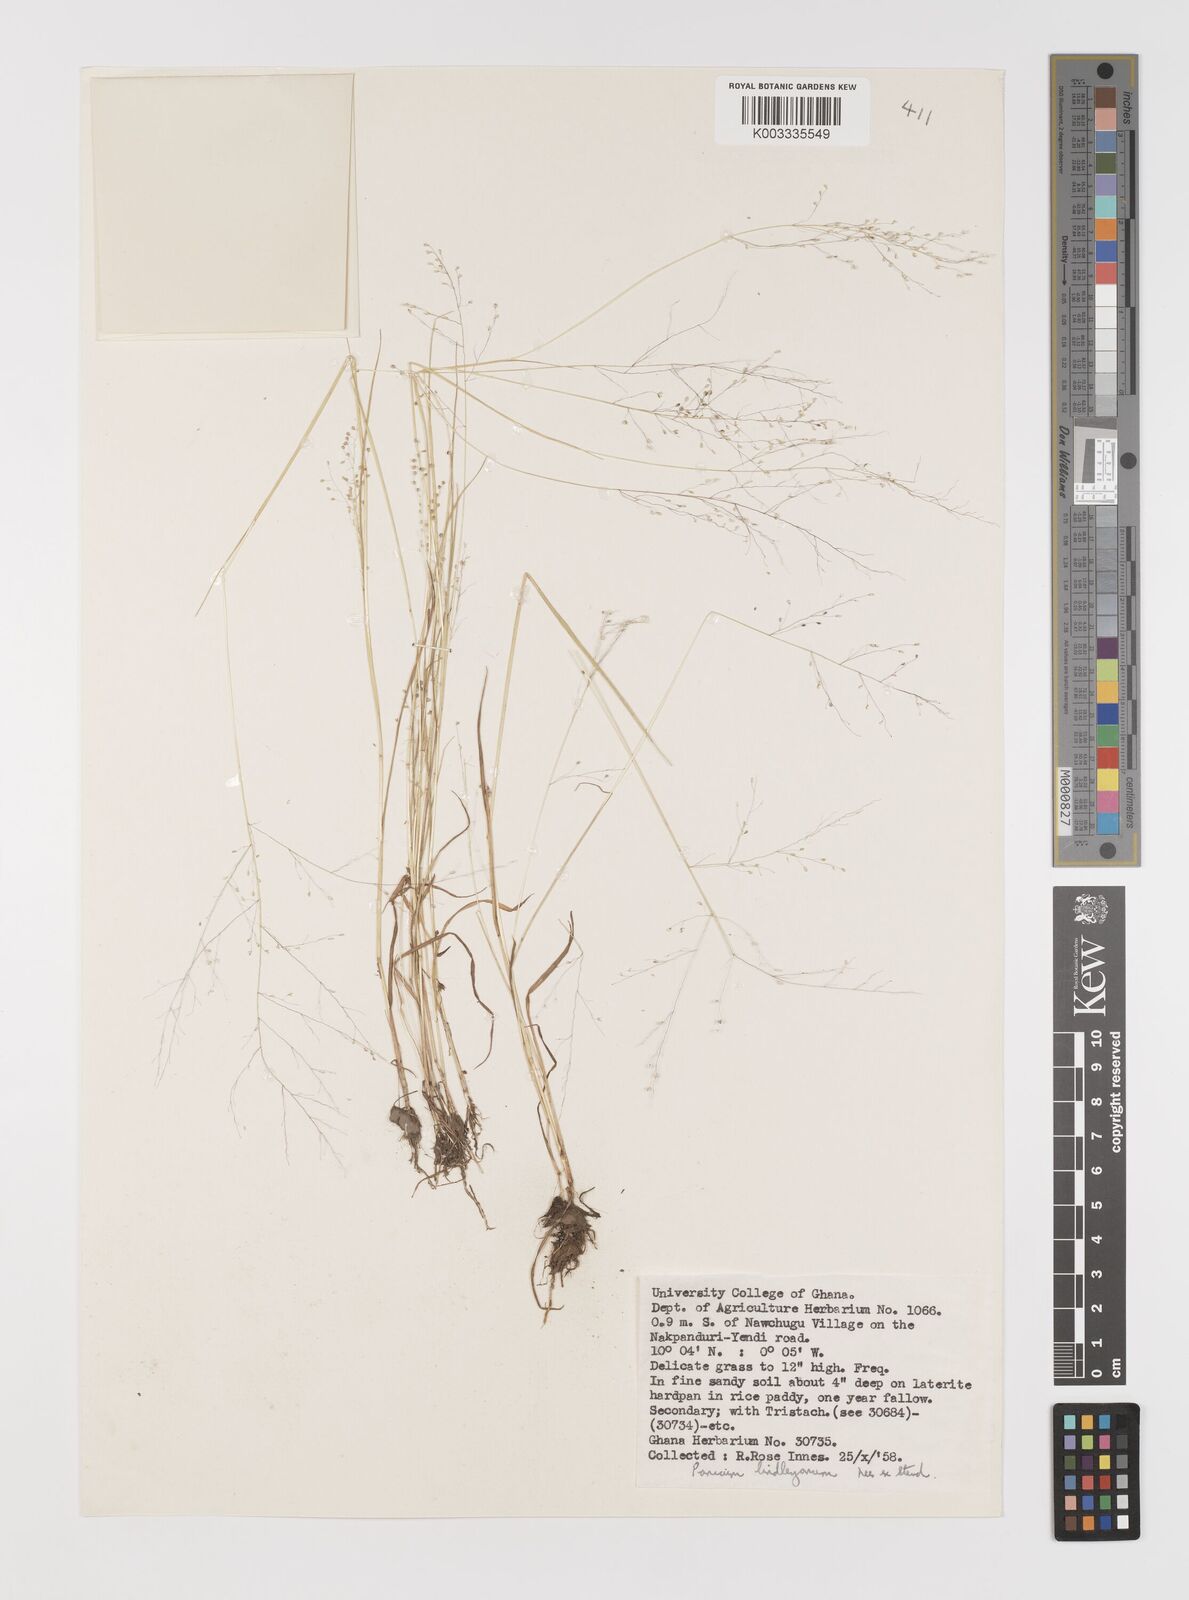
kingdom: Plantae
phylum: Tracheophyta
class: Liliopsida
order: Poales
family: Poaceae
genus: Trichanthecium
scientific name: Trichanthecium tenellum
